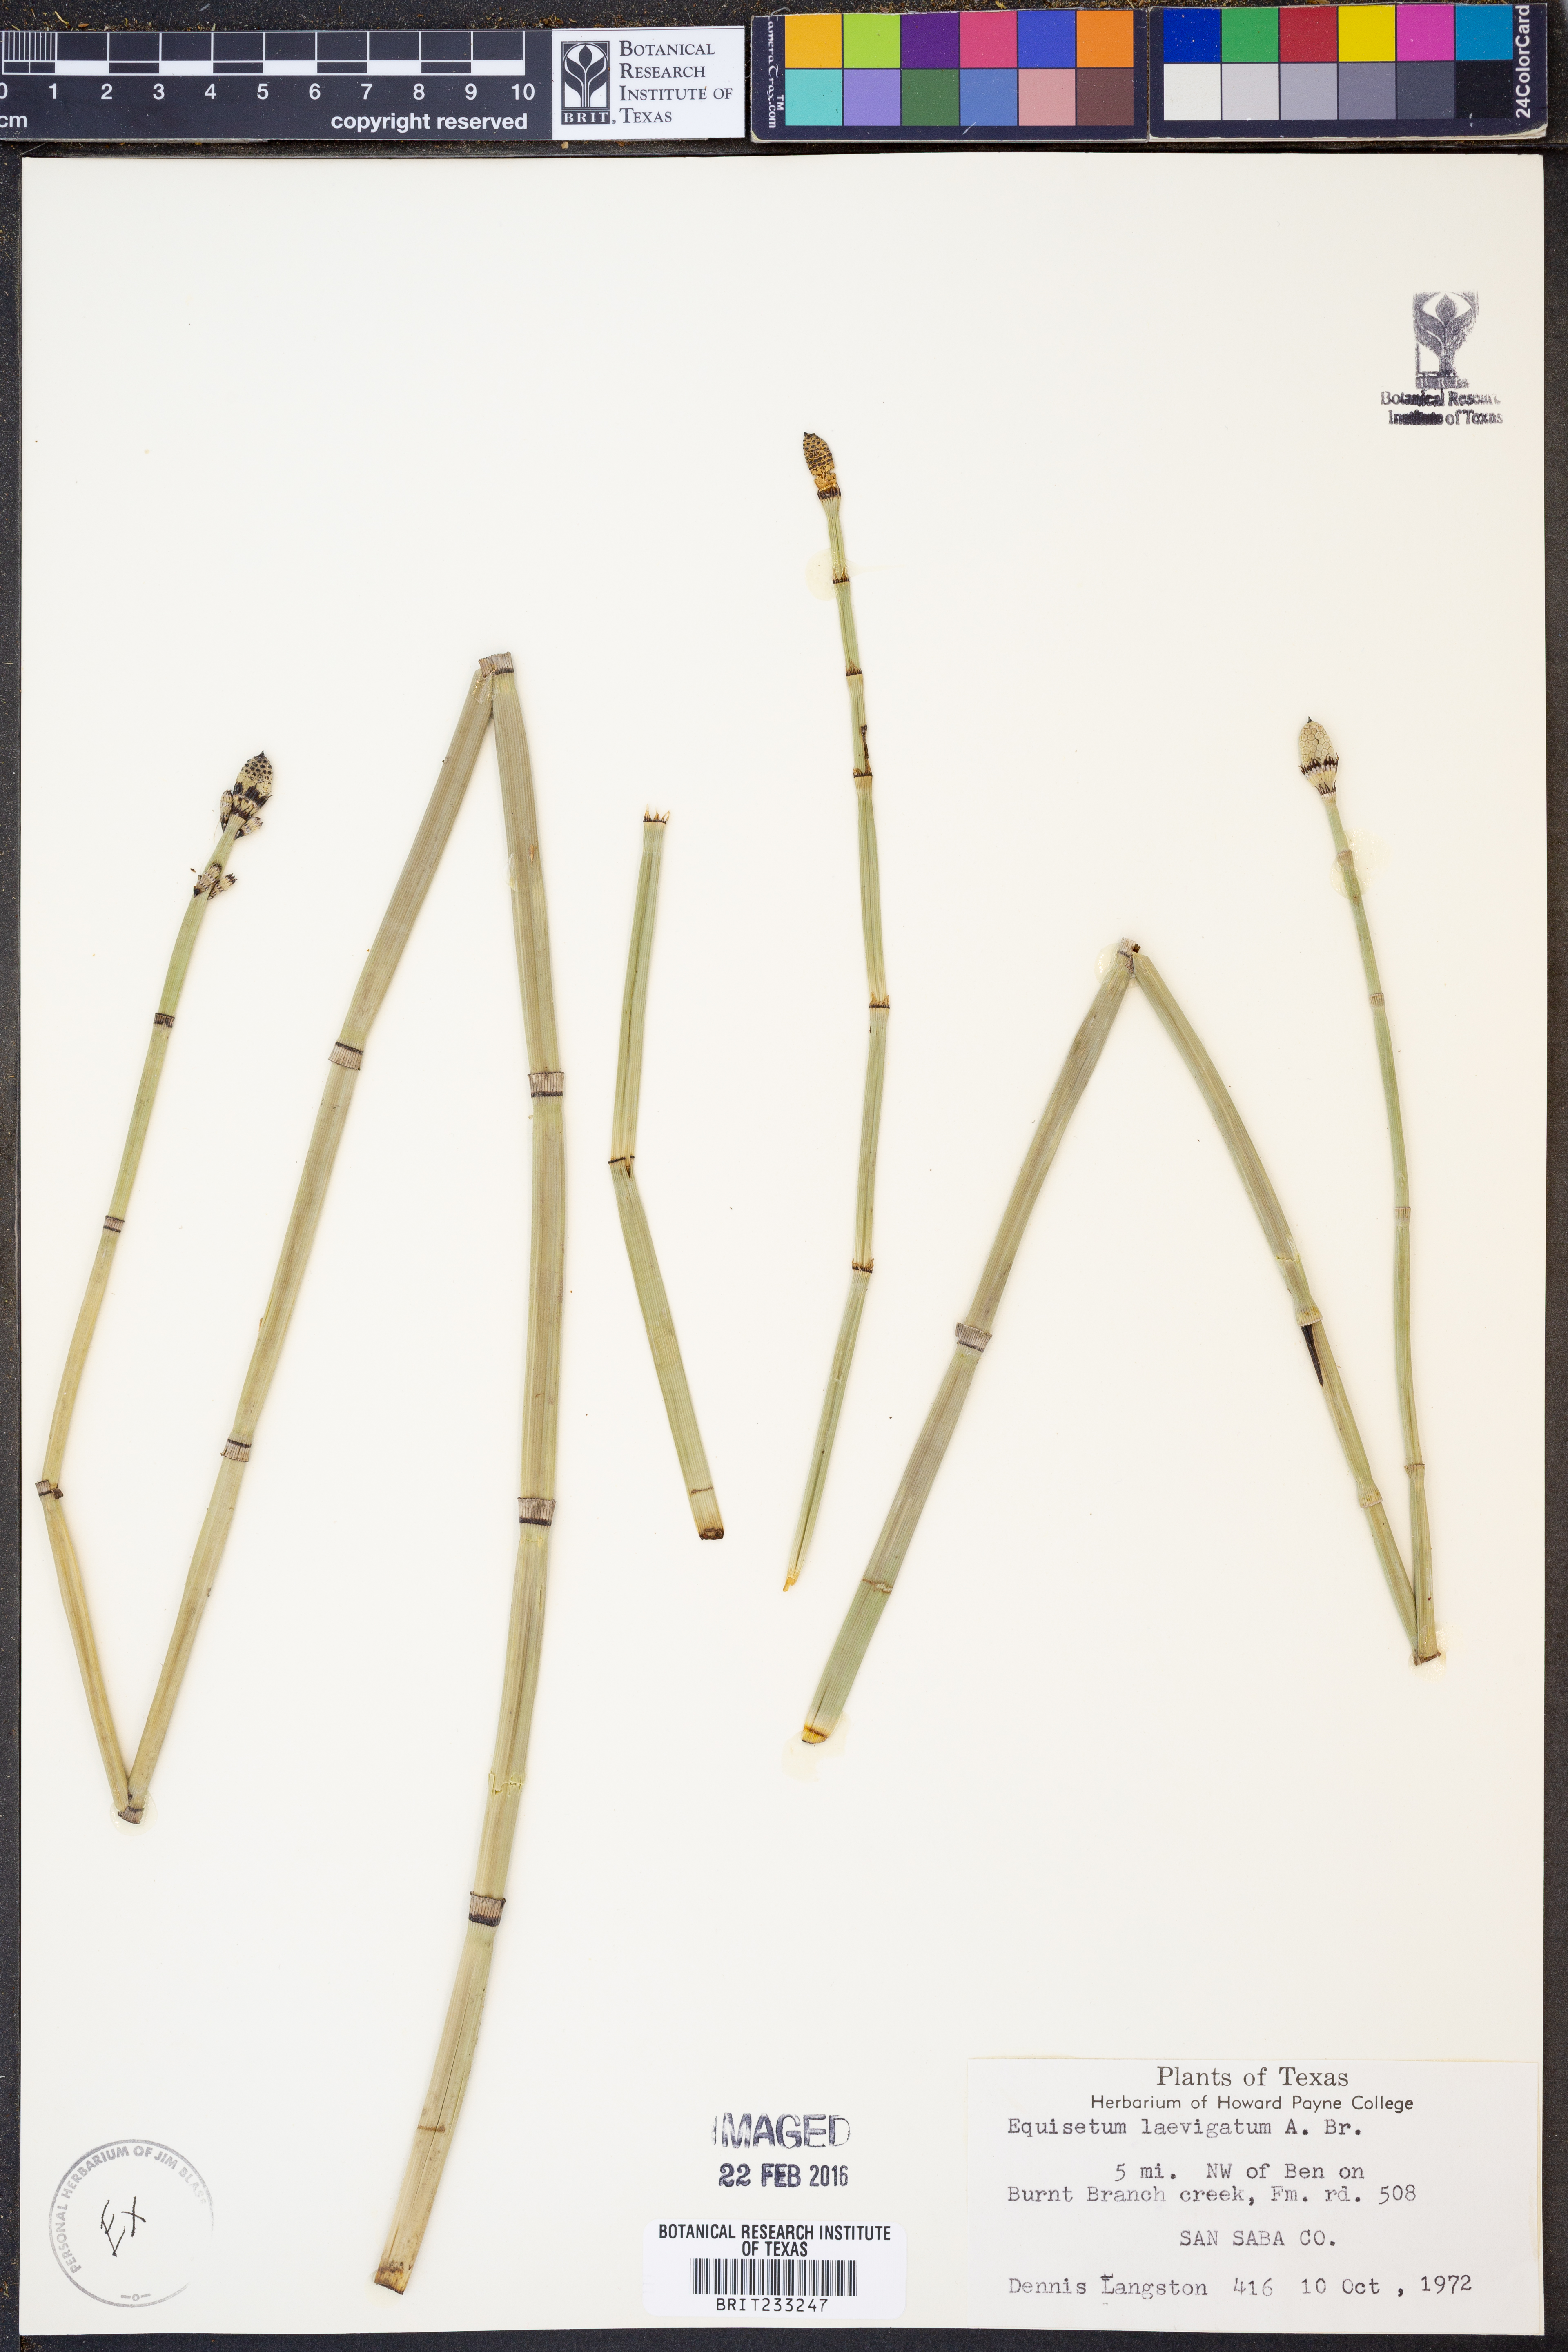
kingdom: Plantae
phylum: Tracheophyta
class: Polypodiopsida
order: Equisetales
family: Equisetaceae
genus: Equisetum
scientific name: Equisetum laevigatum
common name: Smooth scouring-rush
